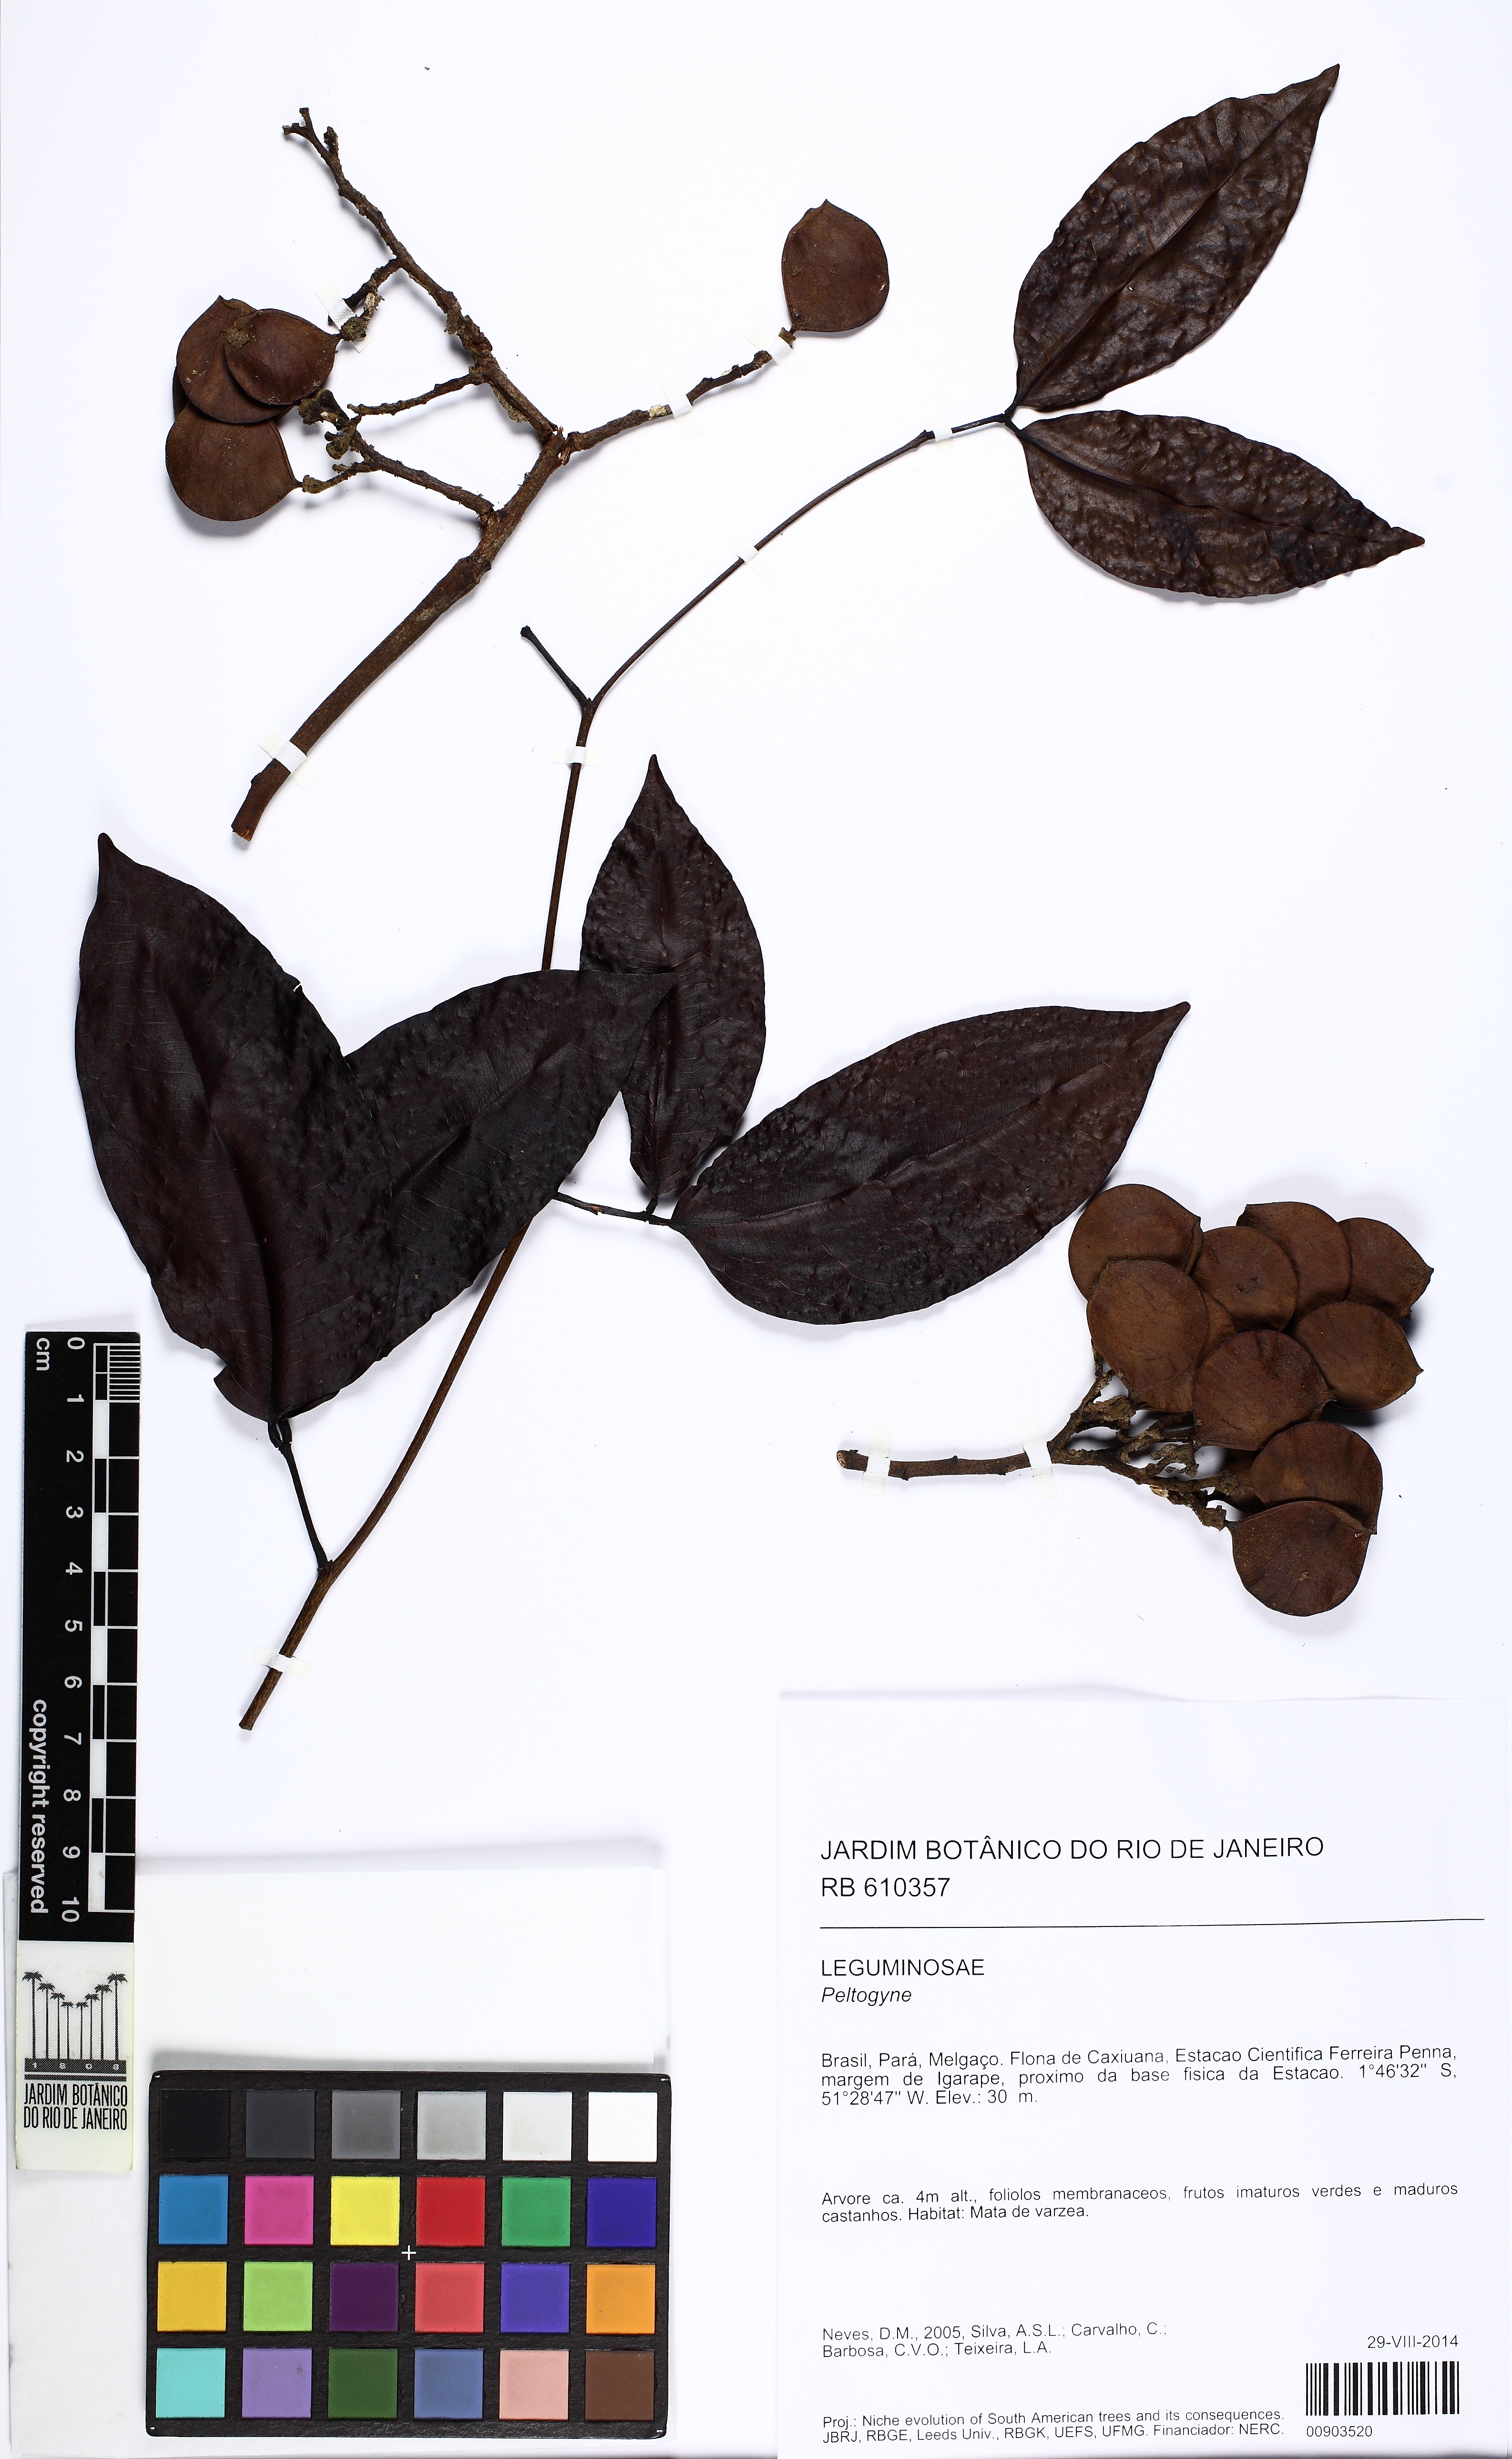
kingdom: Plantae
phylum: Tracheophyta
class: Magnoliopsida
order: Fabales
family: Fabaceae
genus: Peltogyne
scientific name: Peltogyne venosa
